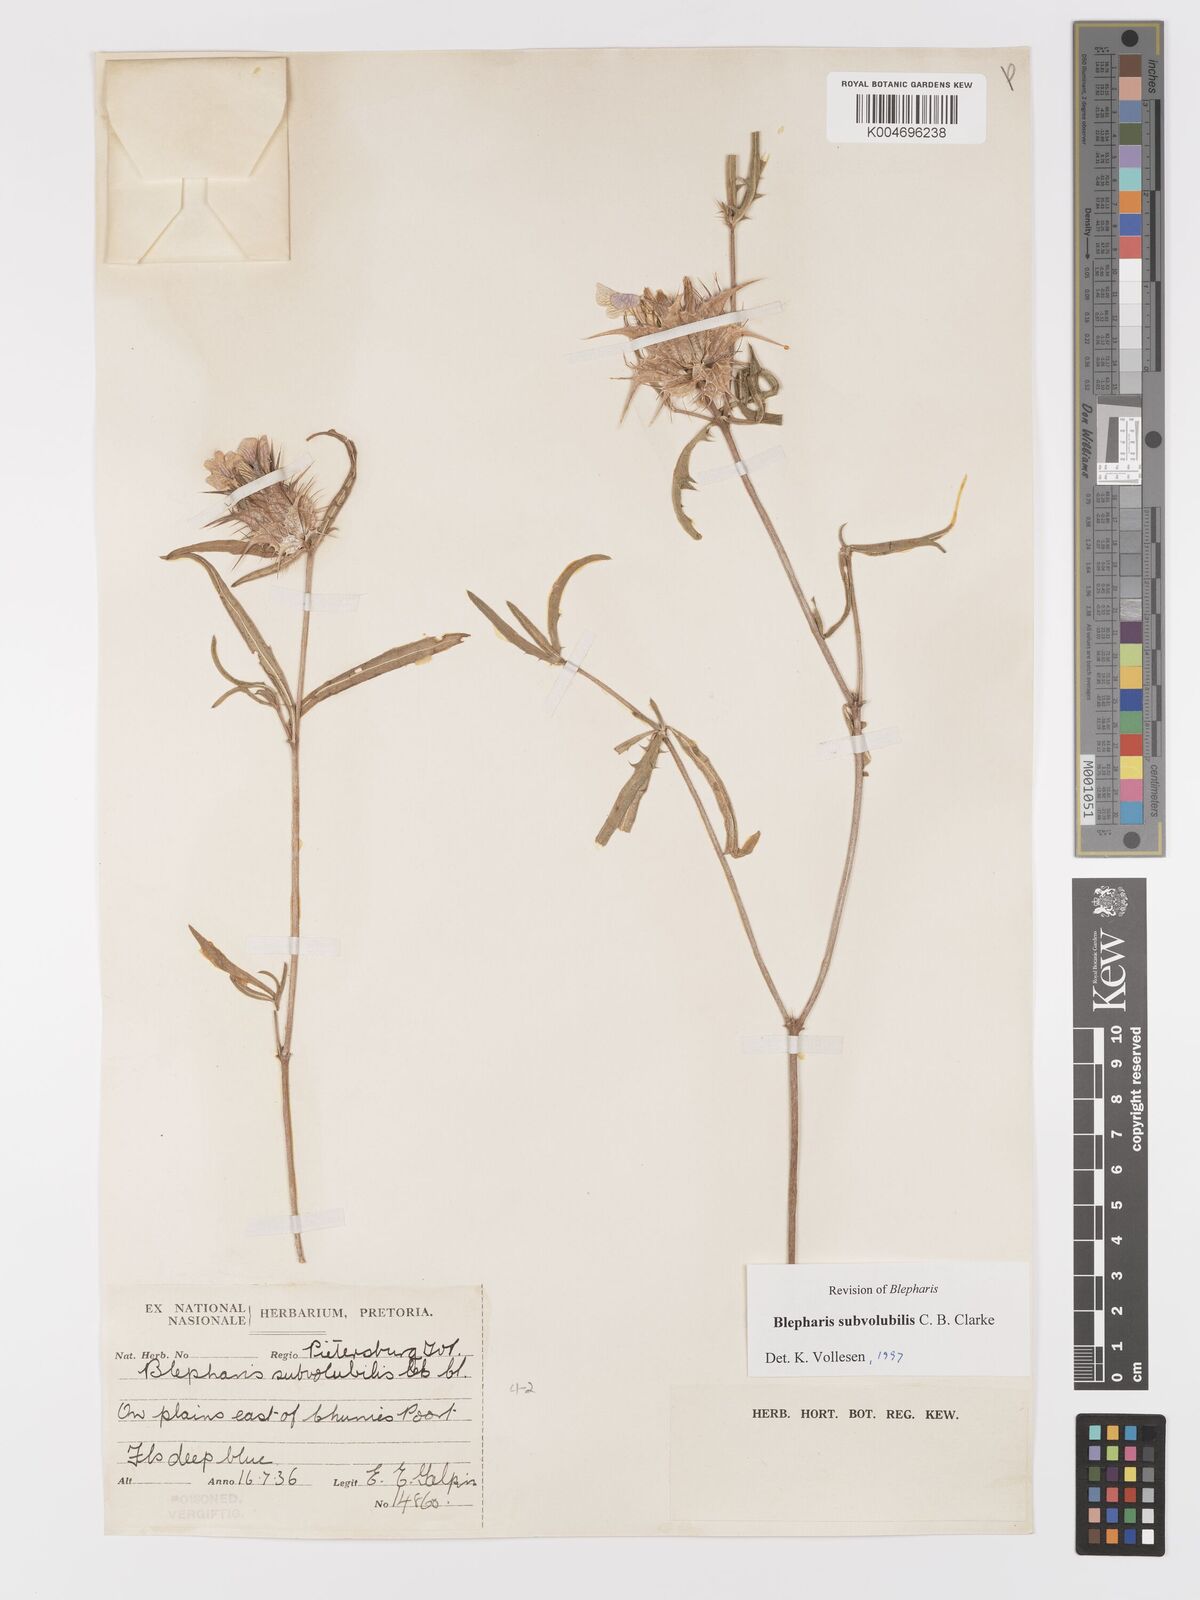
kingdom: Plantae
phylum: Tracheophyta
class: Magnoliopsida
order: Lamiales
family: Acanthaceae
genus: Blepharis
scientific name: Blepharis subvolubilis
